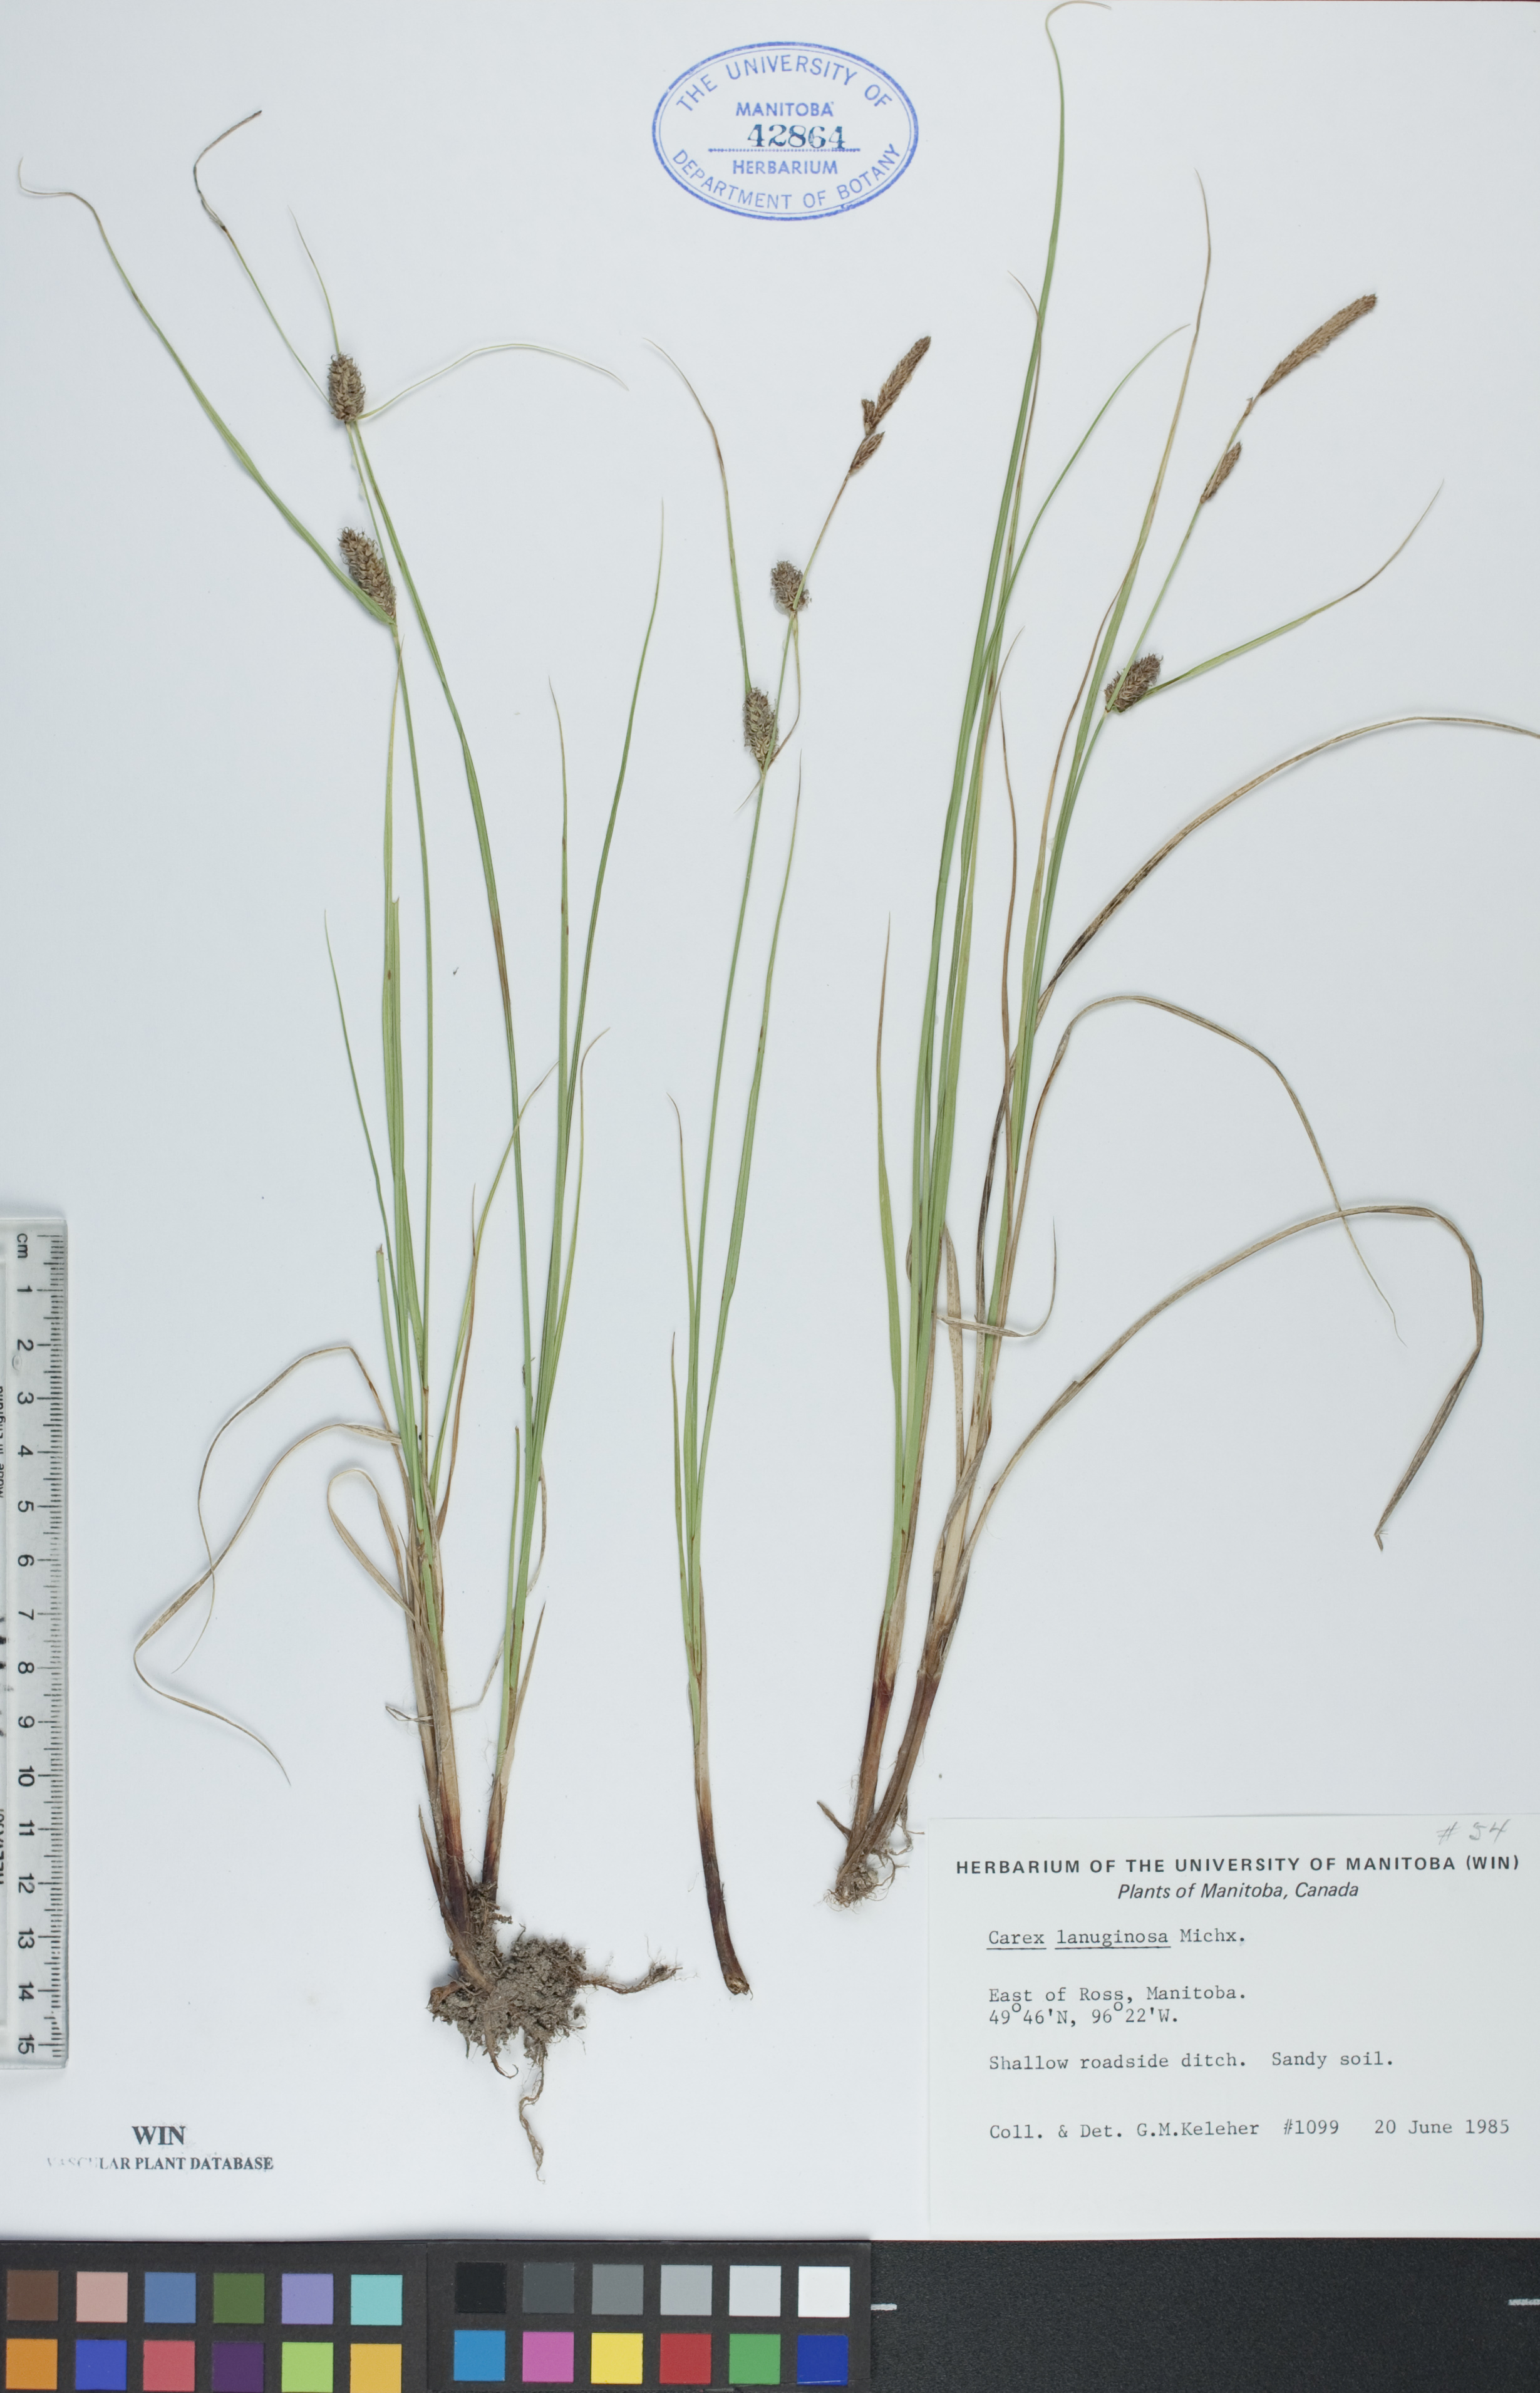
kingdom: Plantae
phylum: Tracheophyta
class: Liliopsida
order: Poales
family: Cyperaceae
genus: Carex
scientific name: Carex lasiocarpa
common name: Slender sedge
